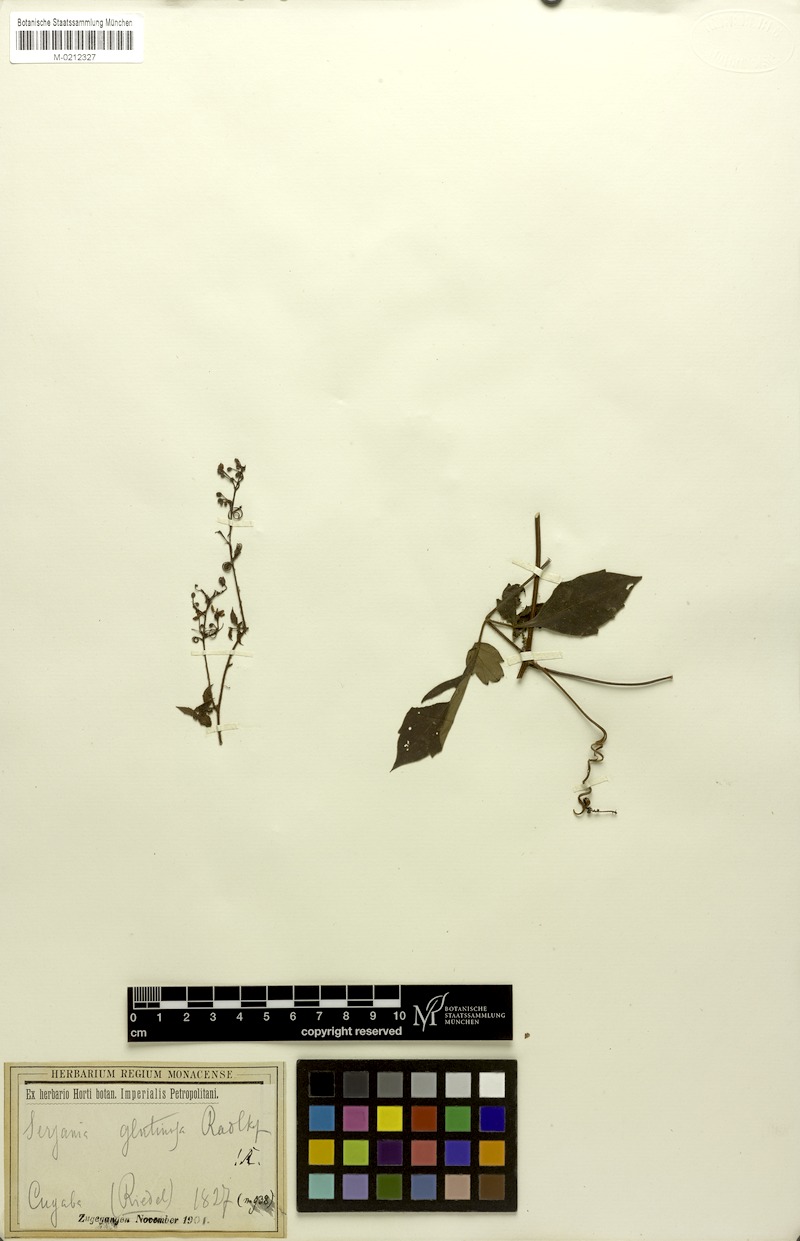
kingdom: Plantae
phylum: Tracheophyta
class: Magnoliopsida
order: Sapindales
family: Sapindaceae
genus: Serjania
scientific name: Serjania glutinosa
